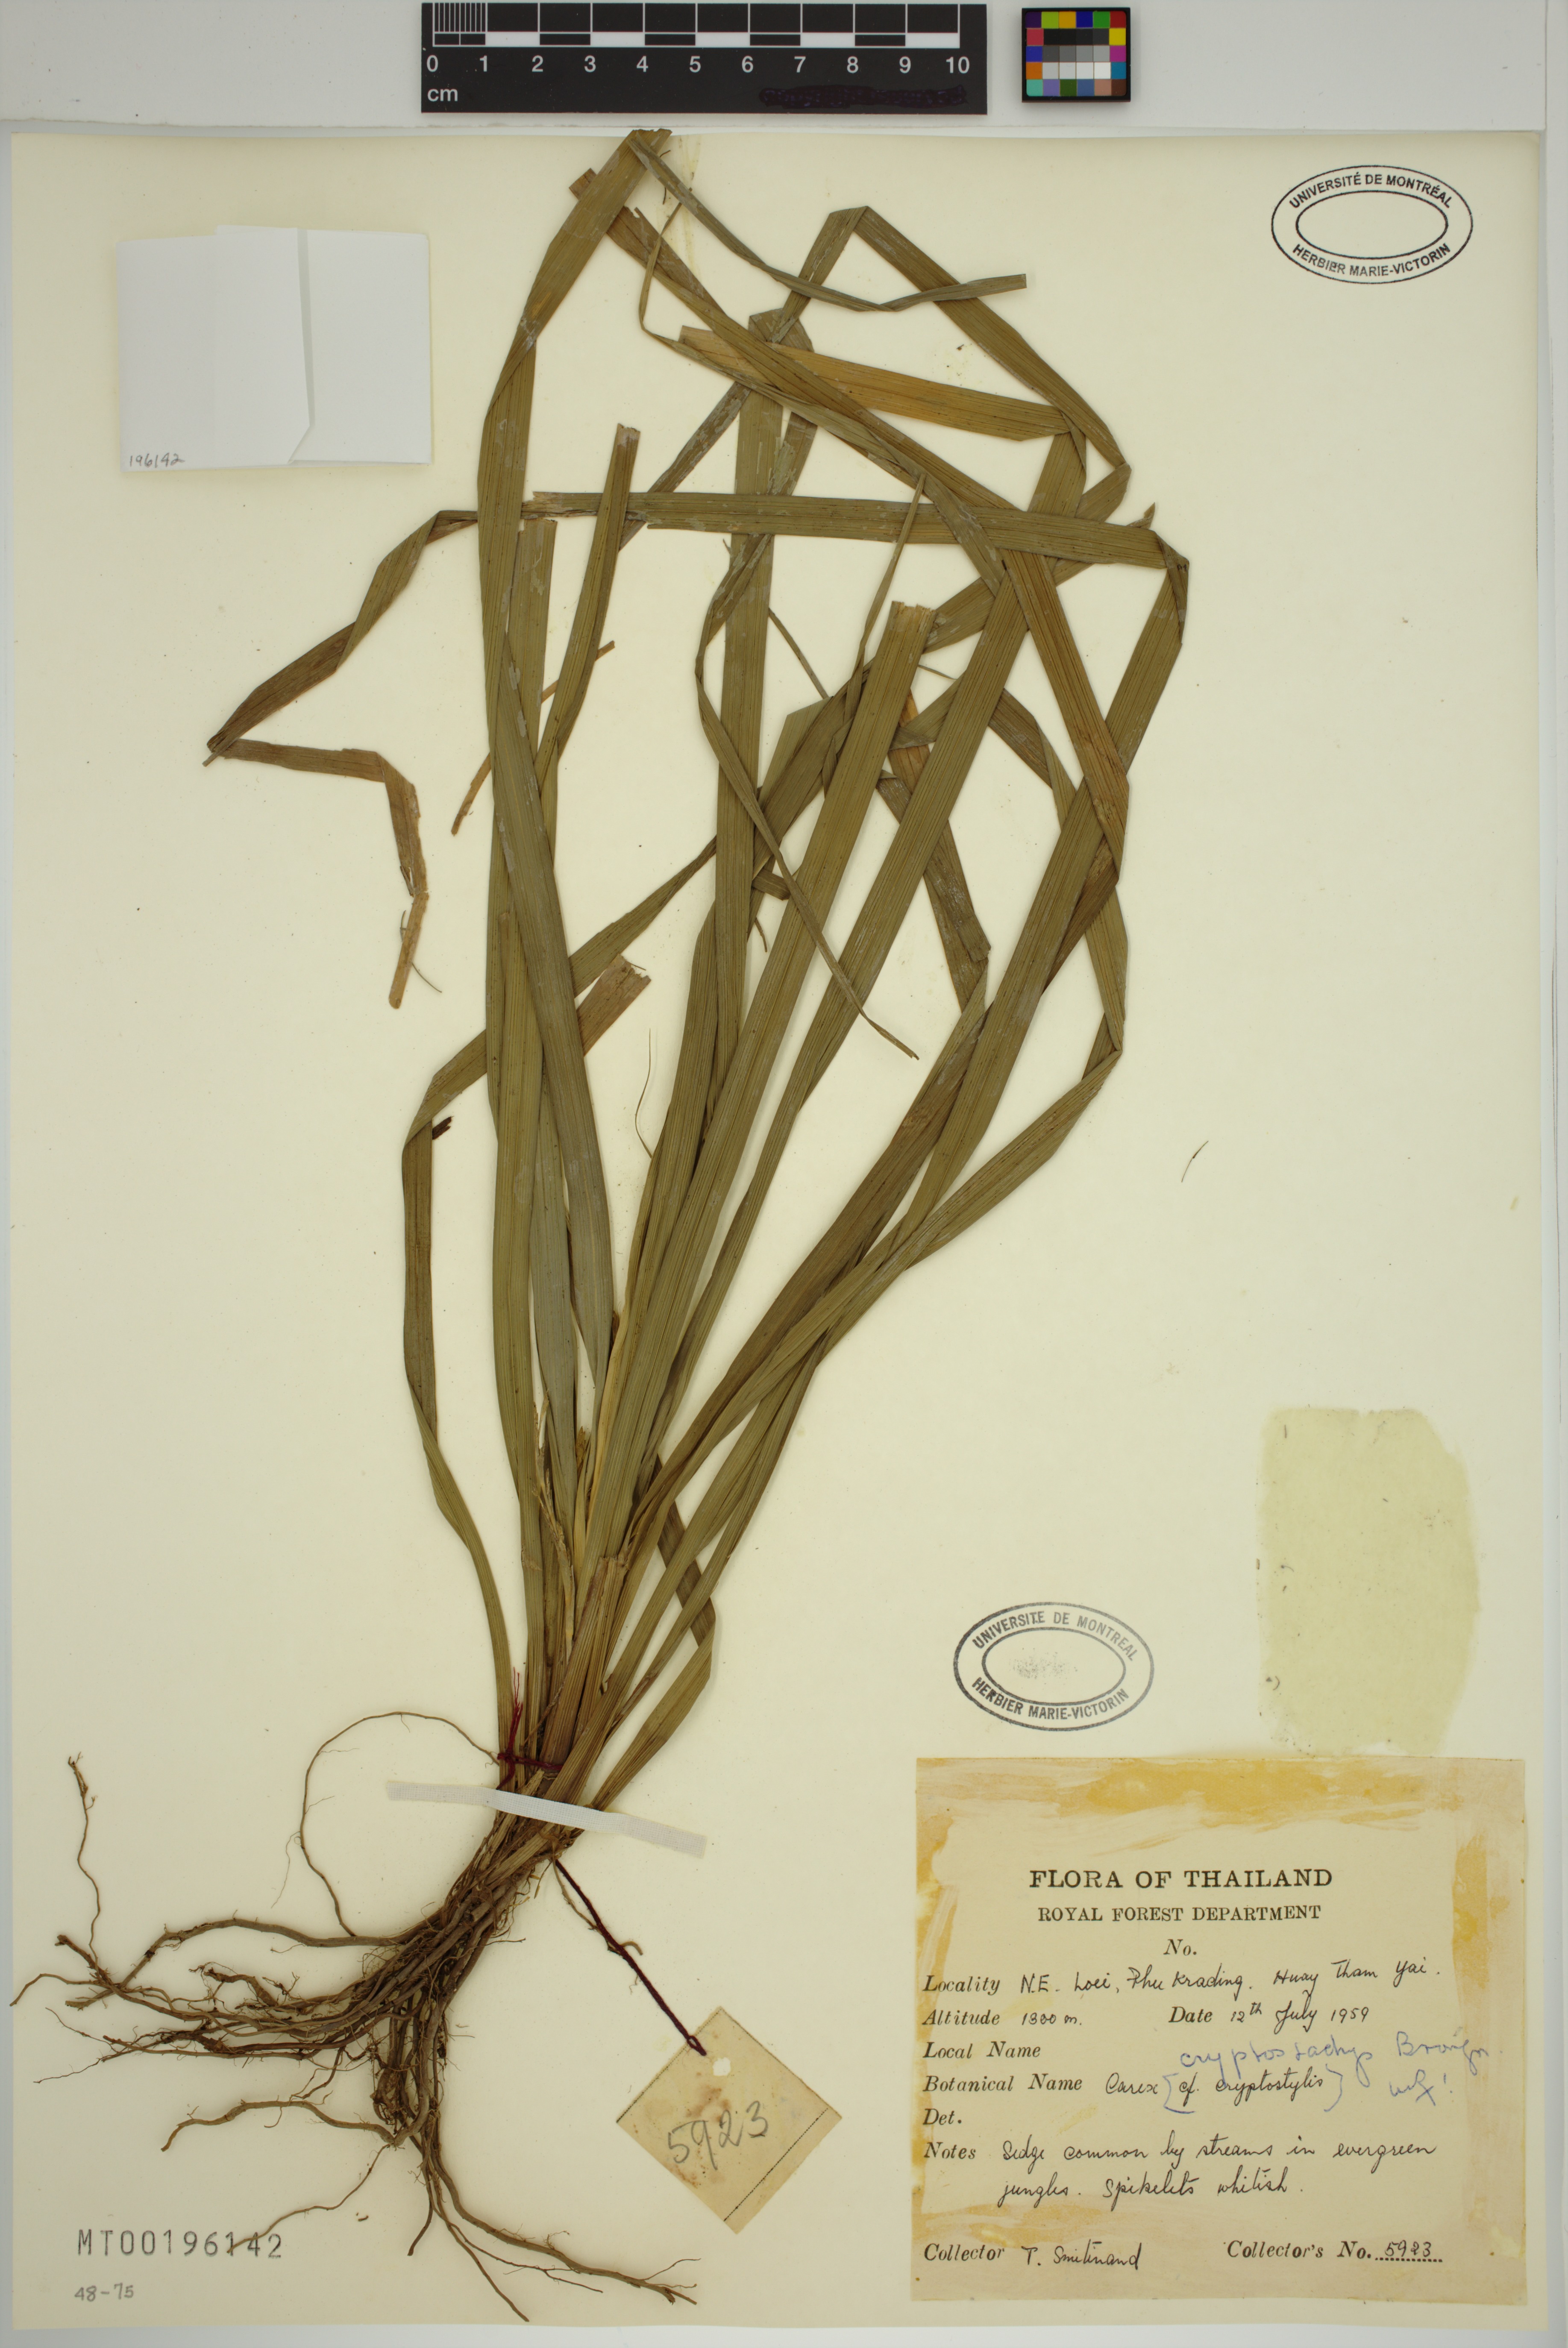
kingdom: Plantae
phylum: Tracheophyta
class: Liliopsida
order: Poales
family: Cyperaceae
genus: Carex
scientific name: Carex cryptostachys
